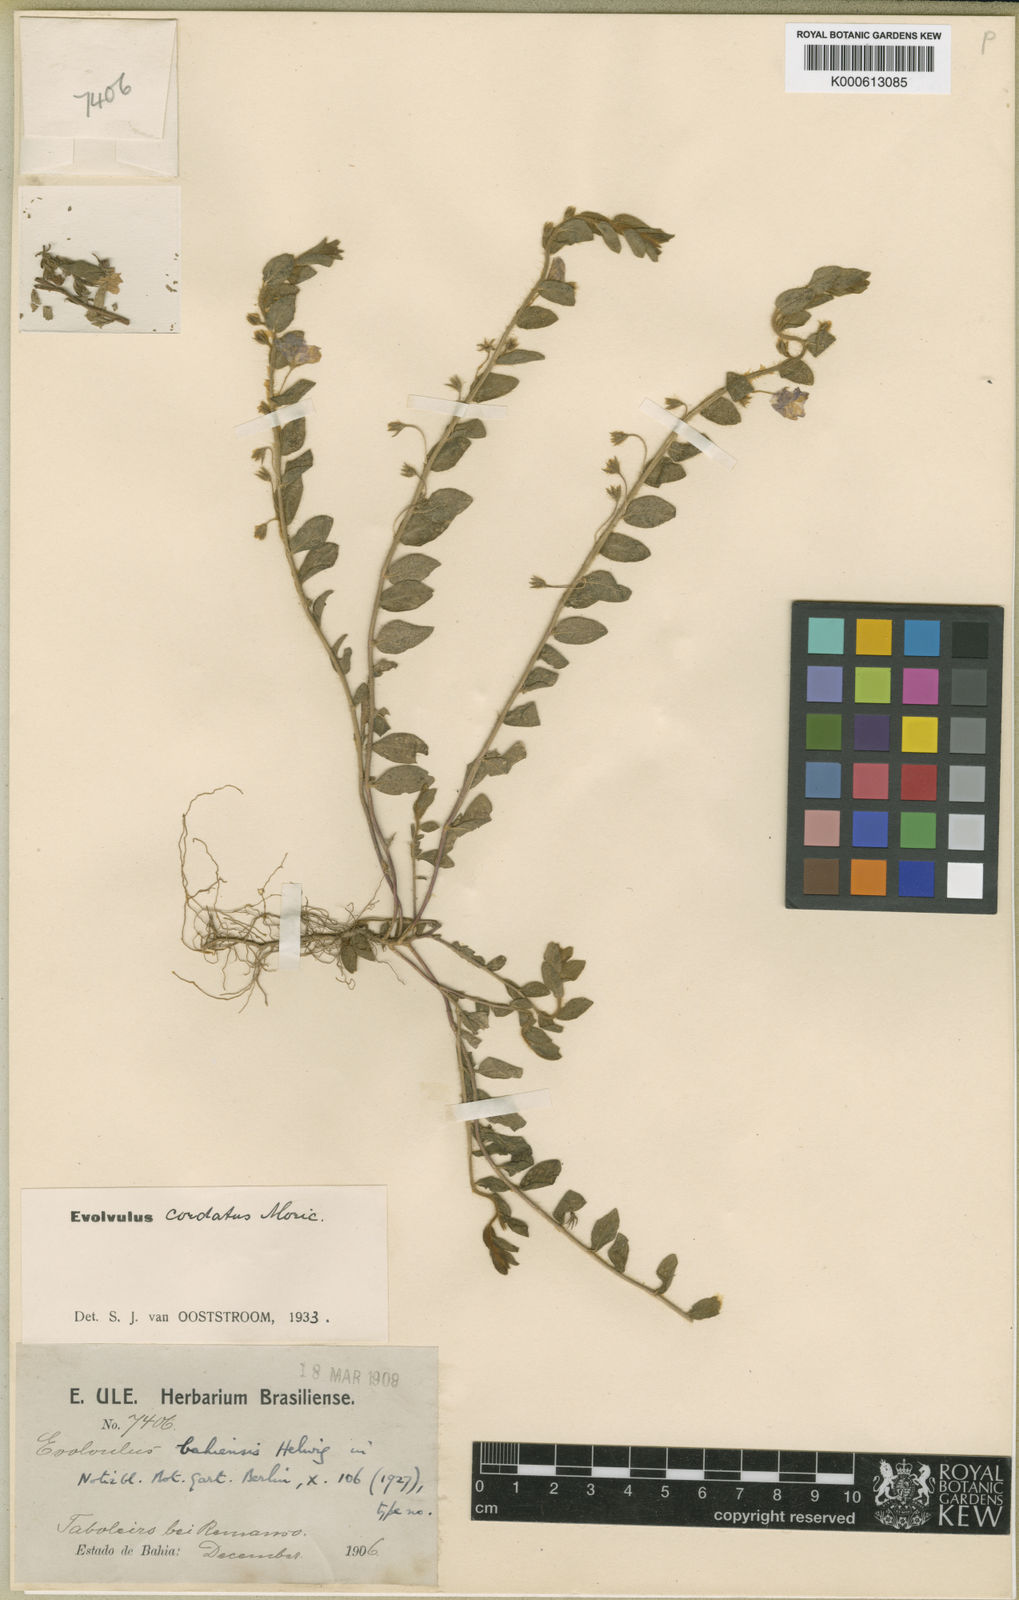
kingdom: Plantae
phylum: Tracheophyta
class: Magnoliopsida
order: Solanales
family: Convolvulaceae
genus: Evolvulus
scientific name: Evolvulus cordatus
